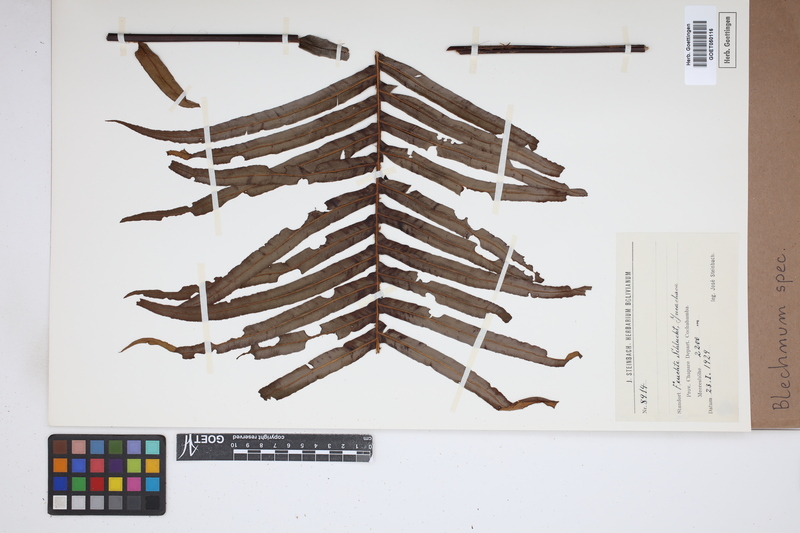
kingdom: Plantae
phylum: Tracheophyta
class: Polypodiopsida
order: Polypodiales
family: Blechnaceae
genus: Blechnum
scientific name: Blechnum
